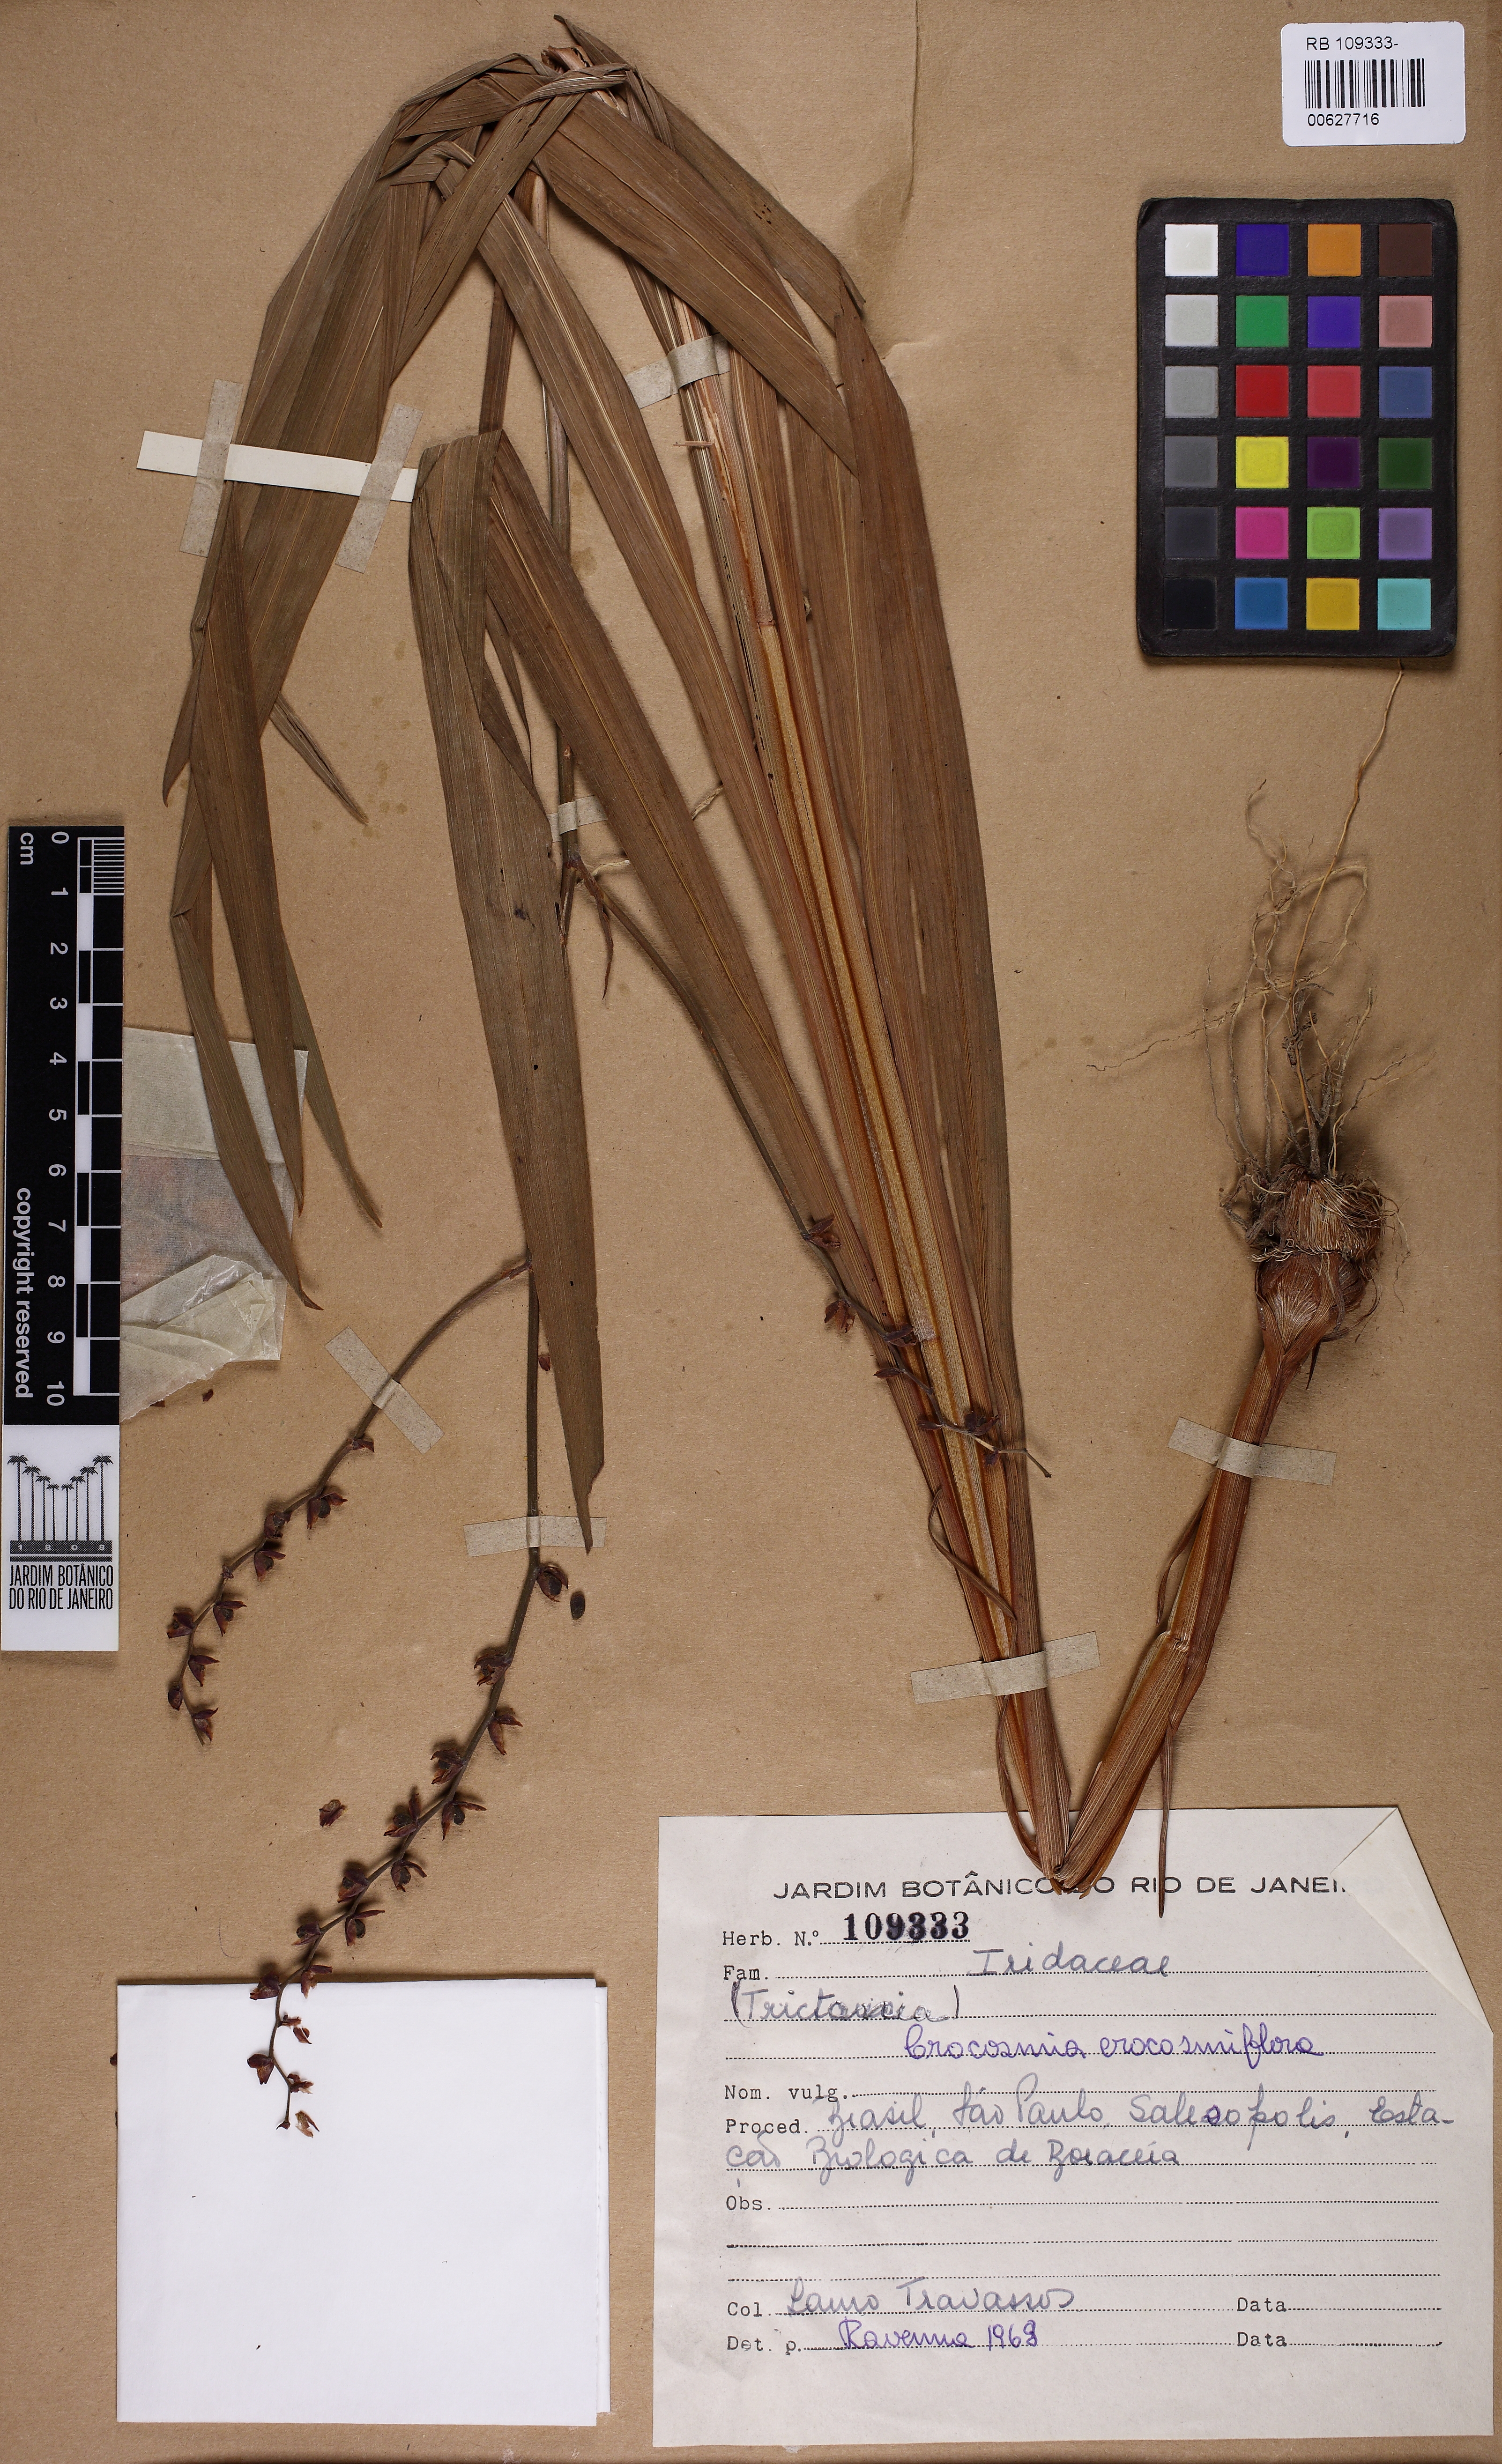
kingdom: Plantae
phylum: Tracheophyta
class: Liliopsida
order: Asparagales
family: Iridaceae
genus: Crocosmia
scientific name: Crocosmia crocosmiiflora
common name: Montbretia
